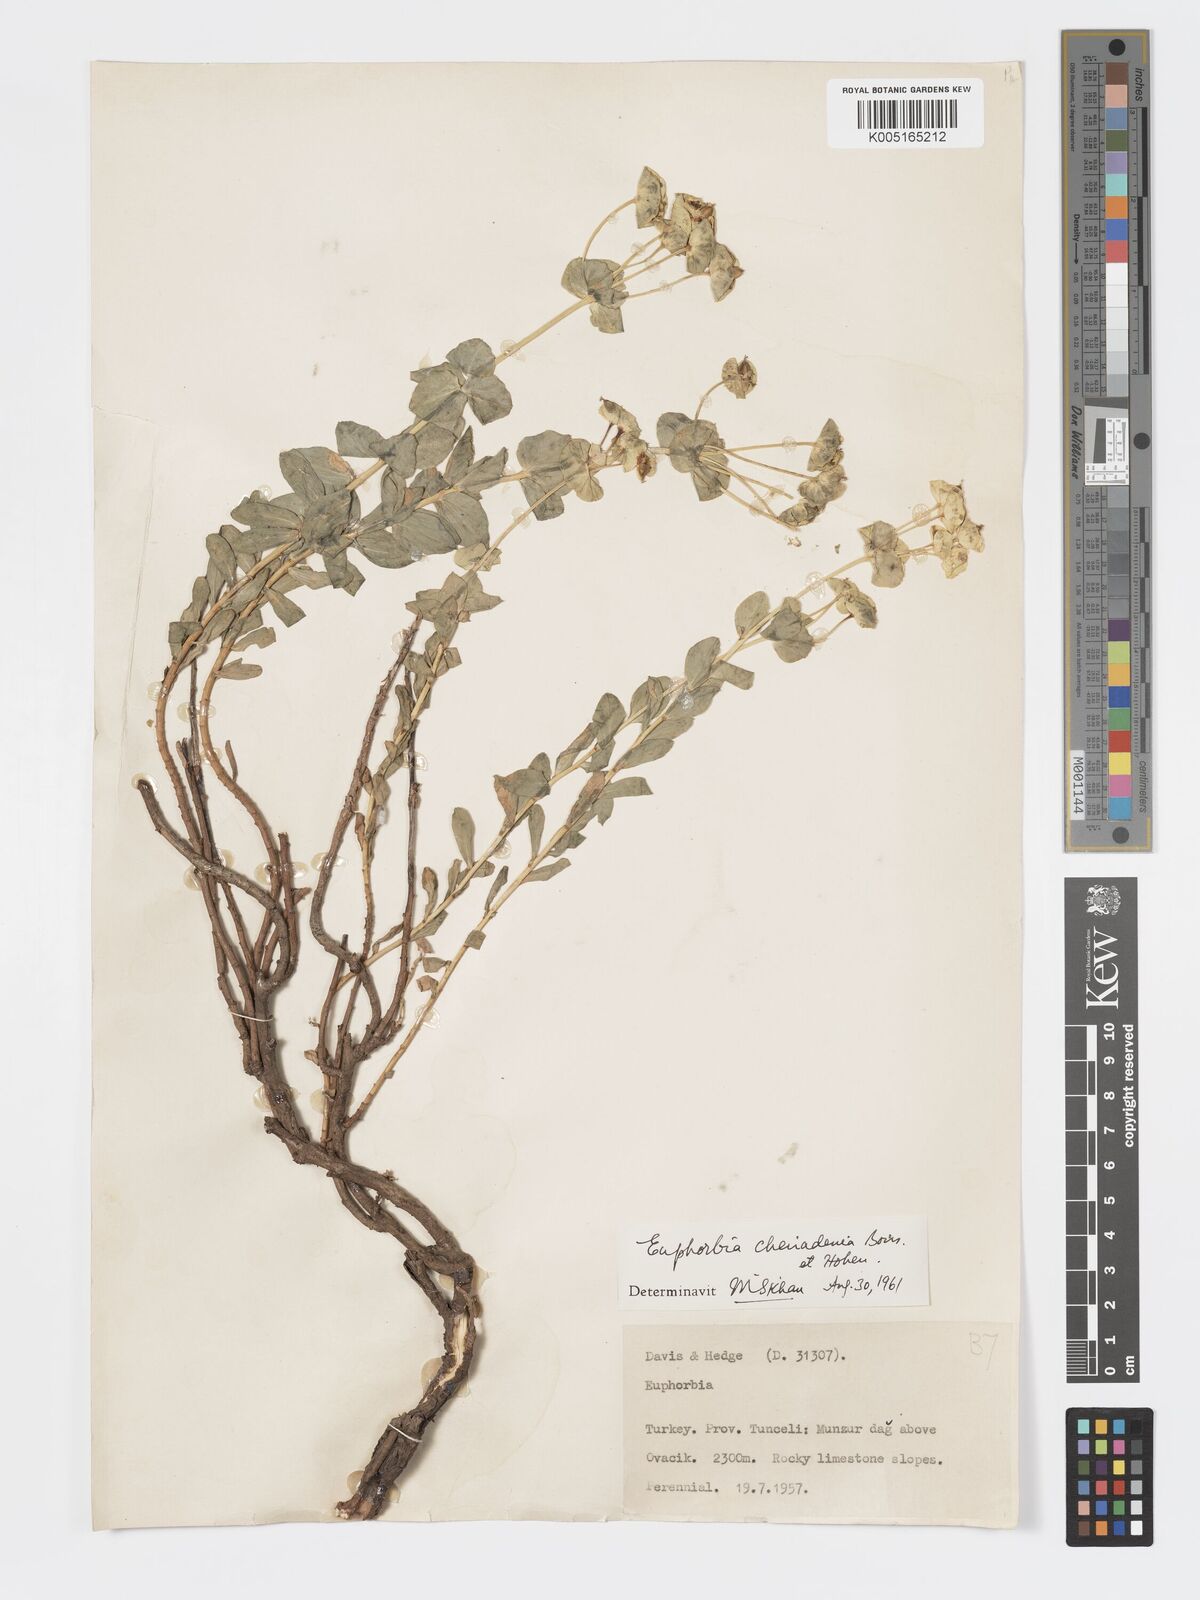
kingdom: Plantae
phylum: Tracheophyta
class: Magnoliopsida
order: Malpighiales
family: Euphorbiaceae
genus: Euphorbia
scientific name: Euphorbia cheiradenia
